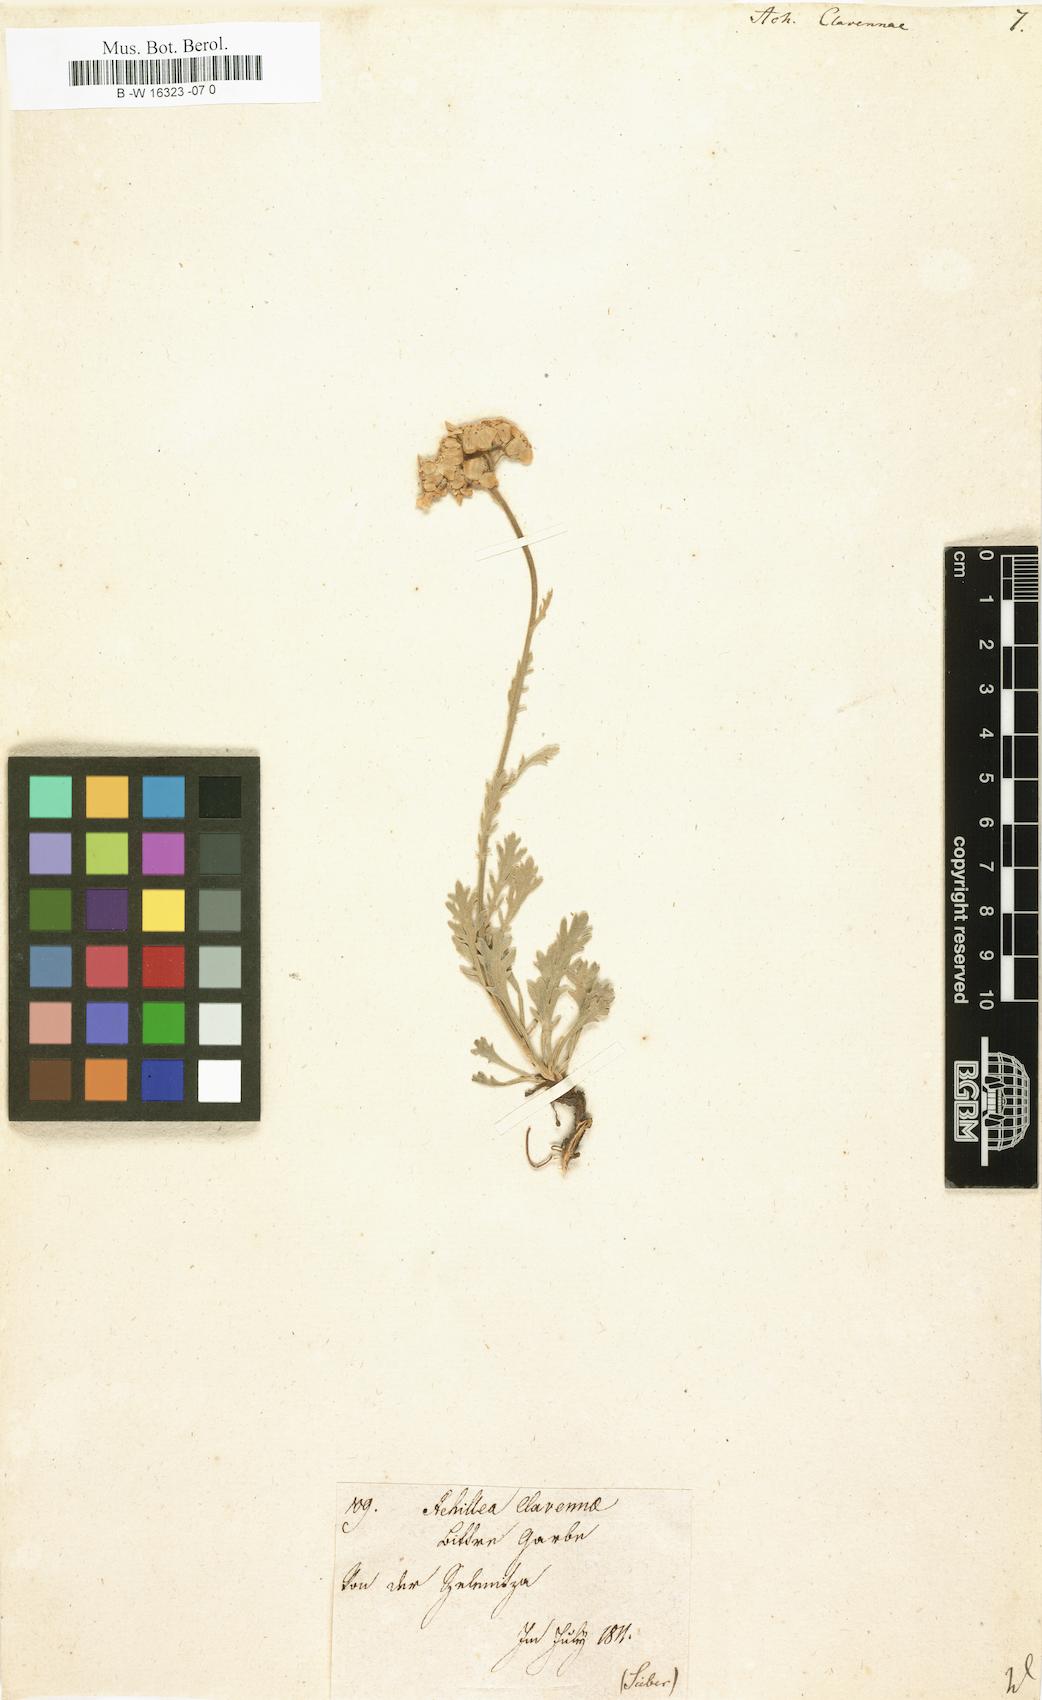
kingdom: Plantae
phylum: Tracheophyta
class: Magnoliopsida
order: Asterales
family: Asteraceae
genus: Achillea
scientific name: Achillea clavennae
